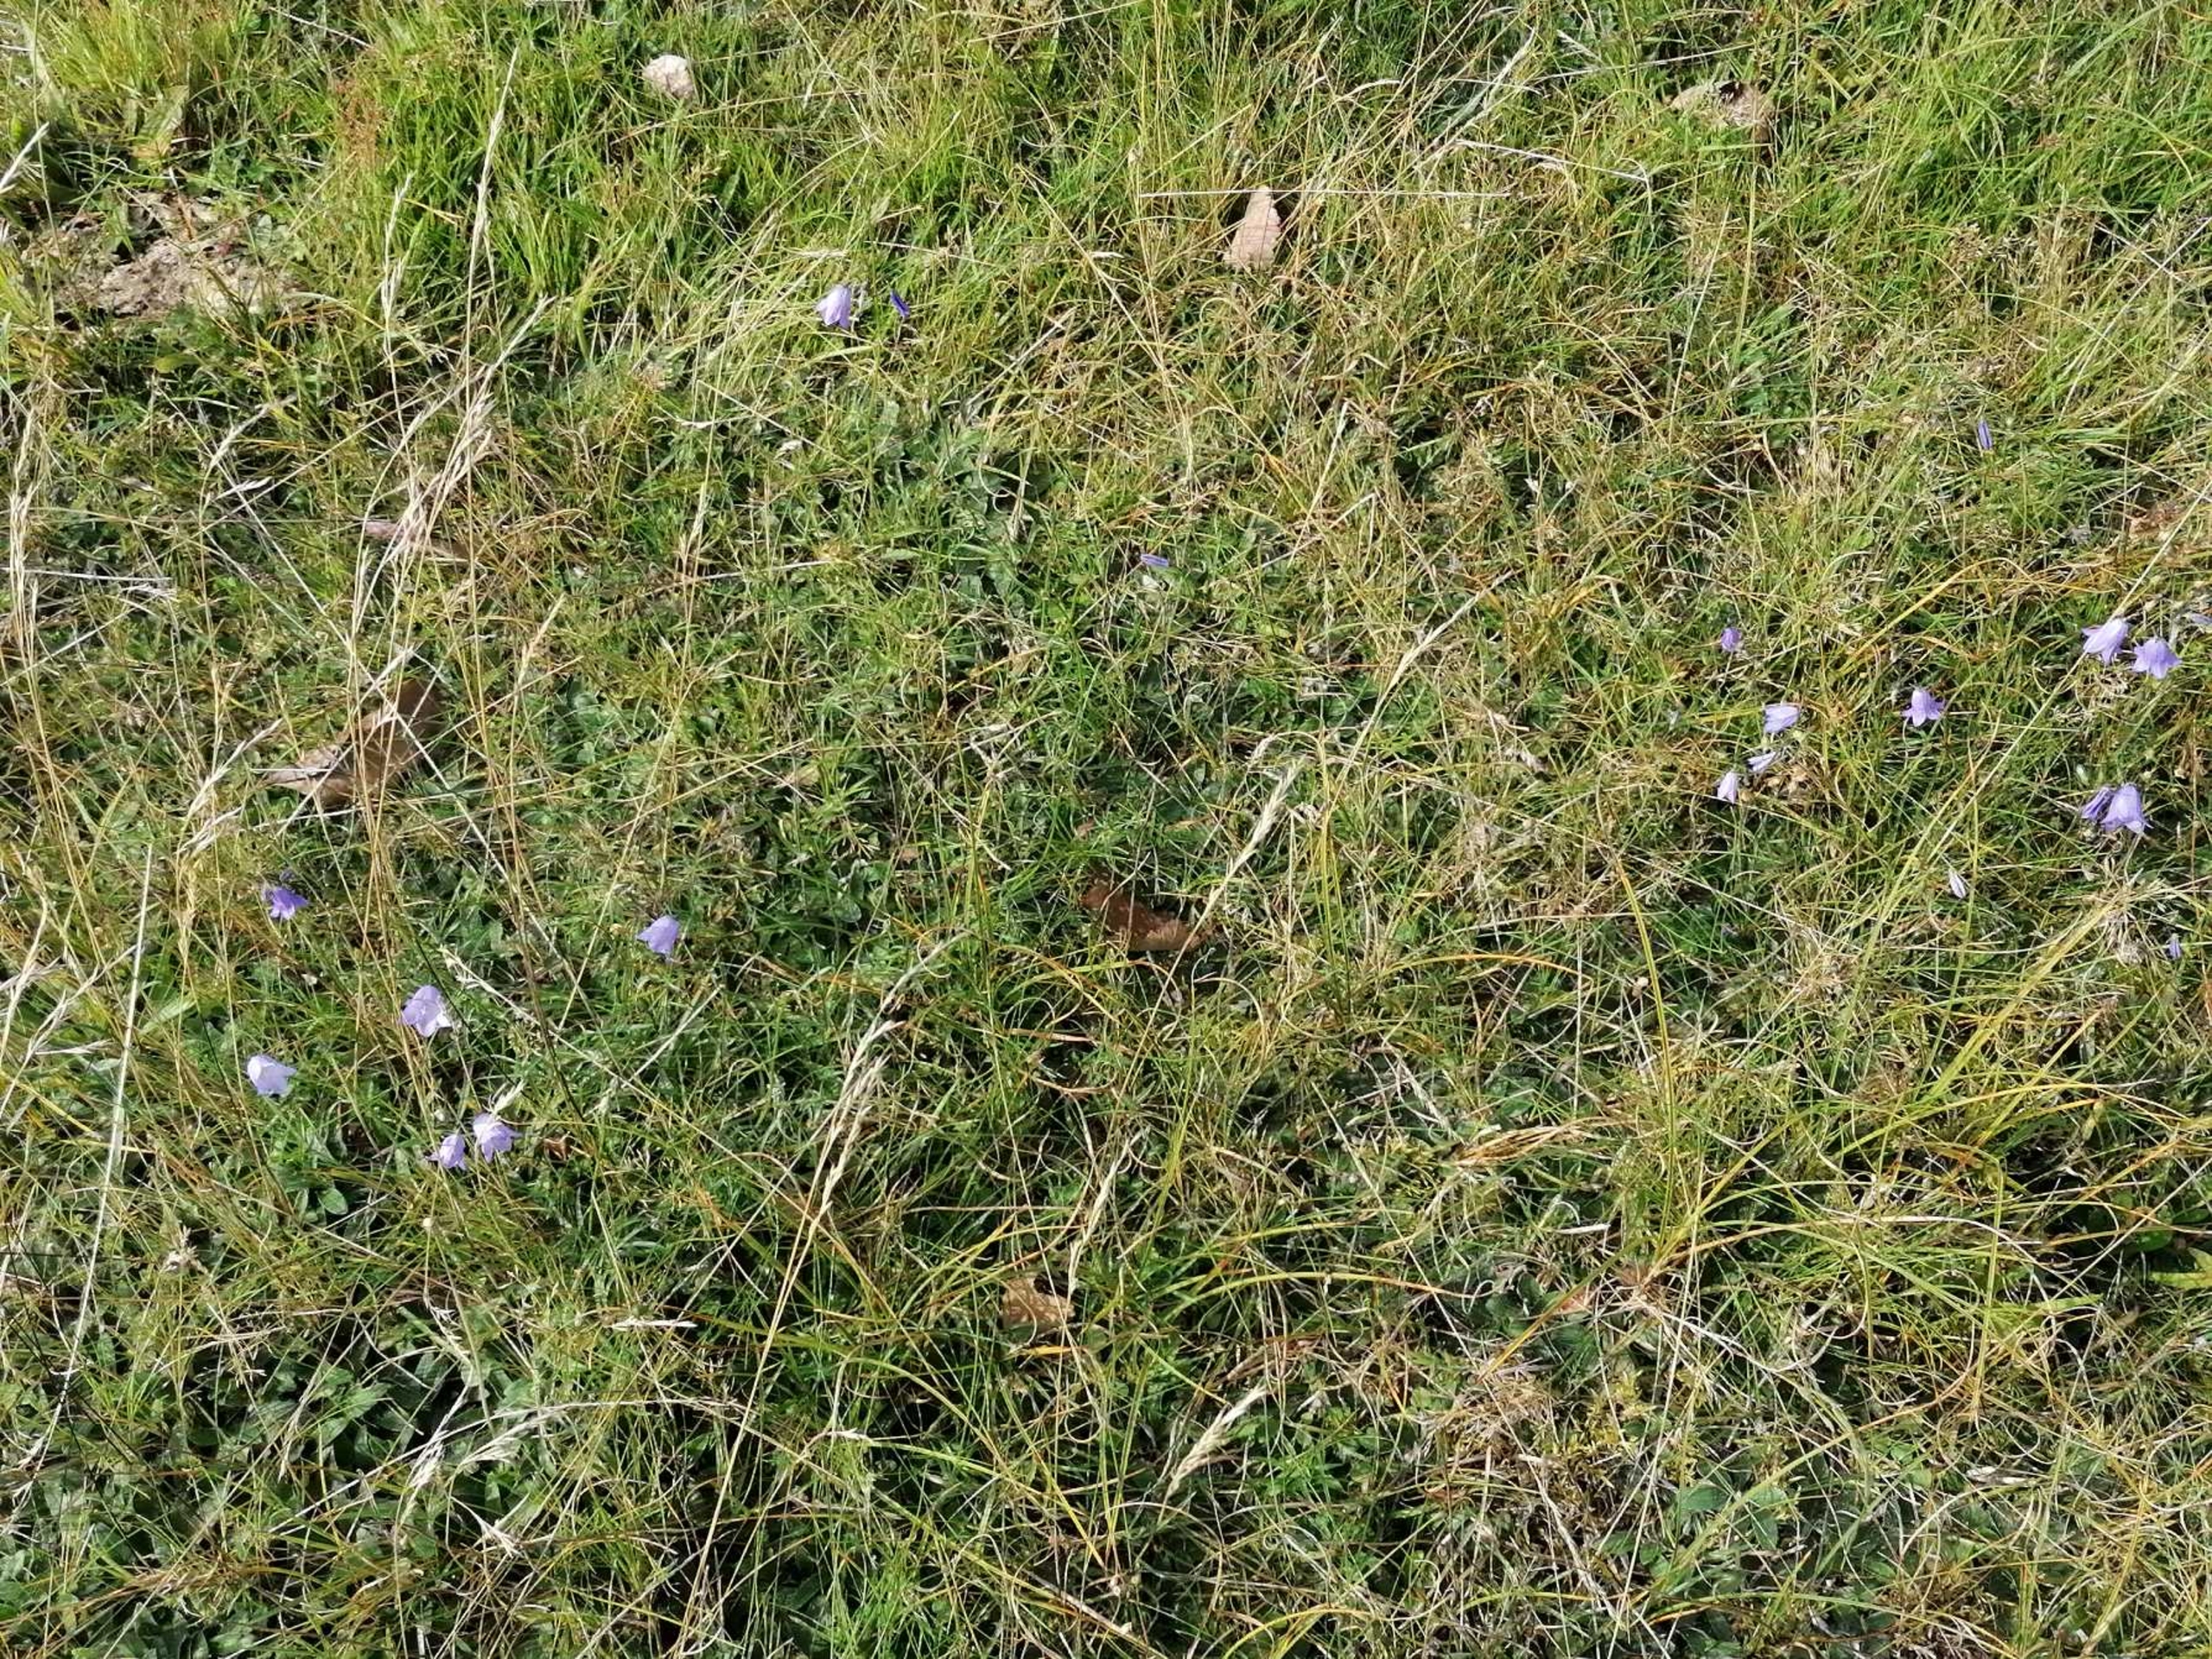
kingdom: Plantae
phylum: Tracheophyta
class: Magnoliopsida
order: Asterales
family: Campanulaceae
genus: Campanula
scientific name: Campanula rotundifolia
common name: Liden klokke
